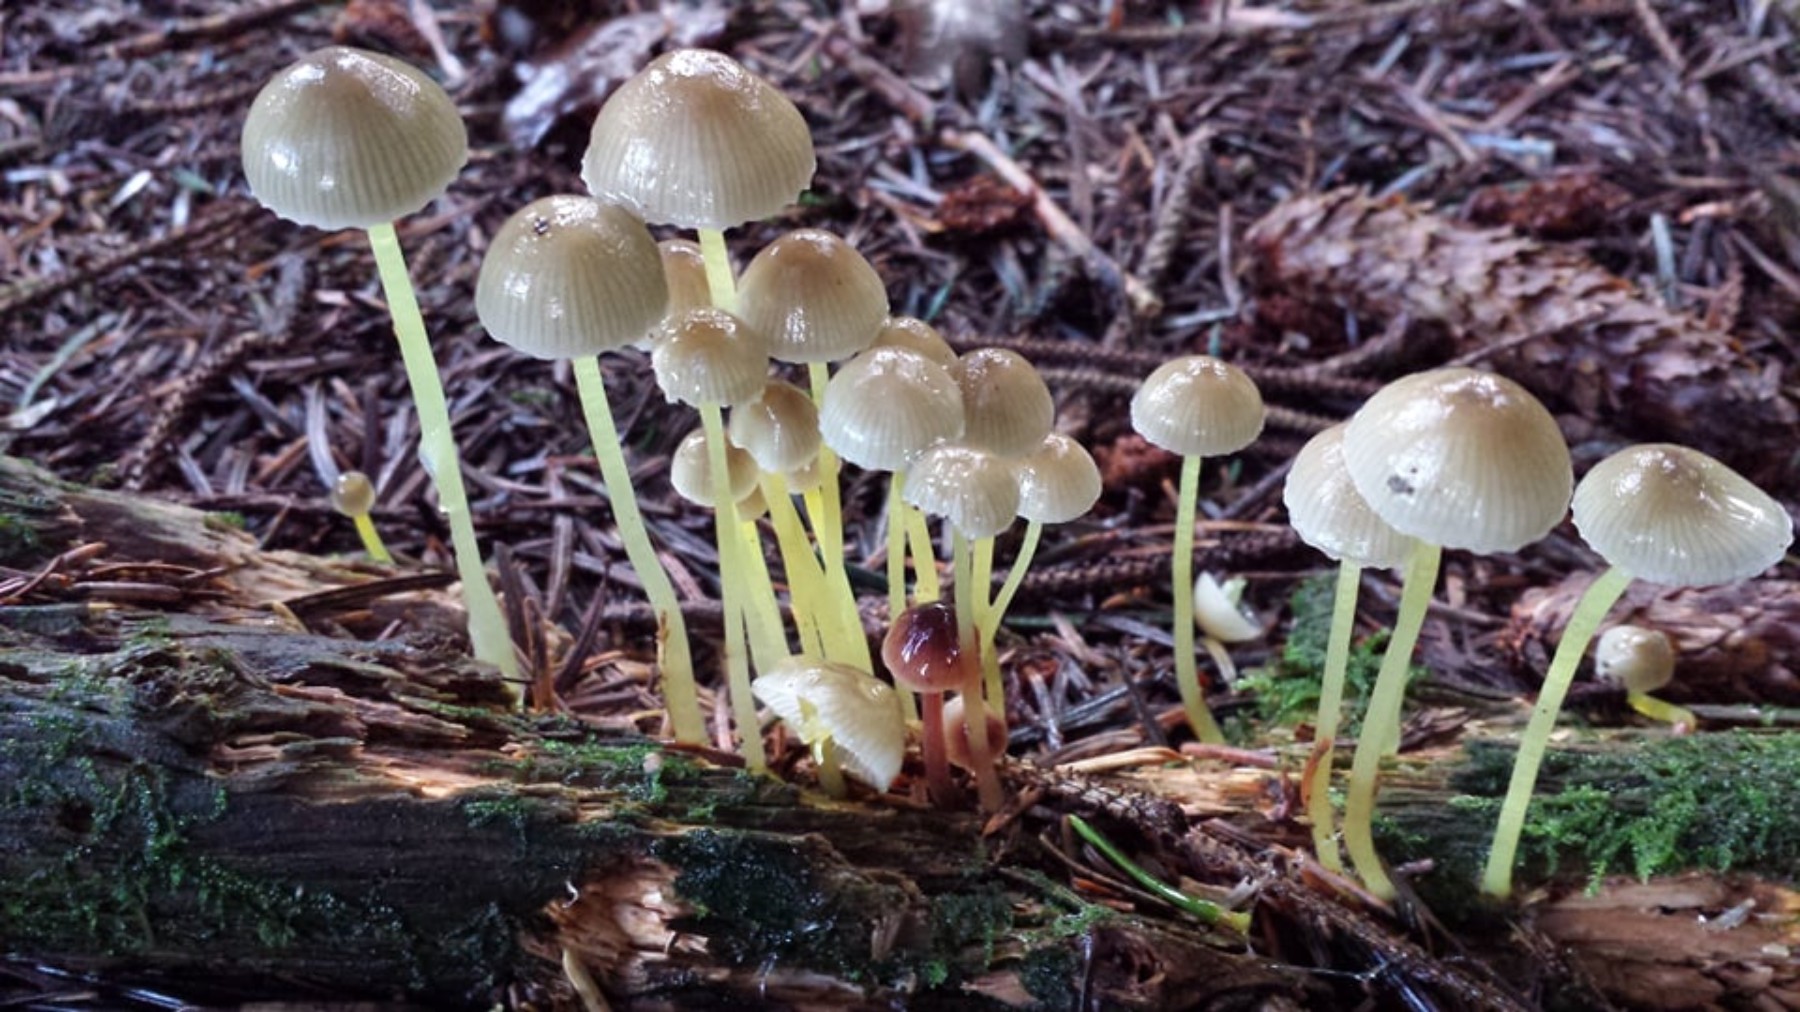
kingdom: Fungi
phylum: Basidiomycota
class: Agaricomycetes
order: Agaricales
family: Mycenaceae
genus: Mycena
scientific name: Mycena epipterygia
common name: gulstokket huesvamp
